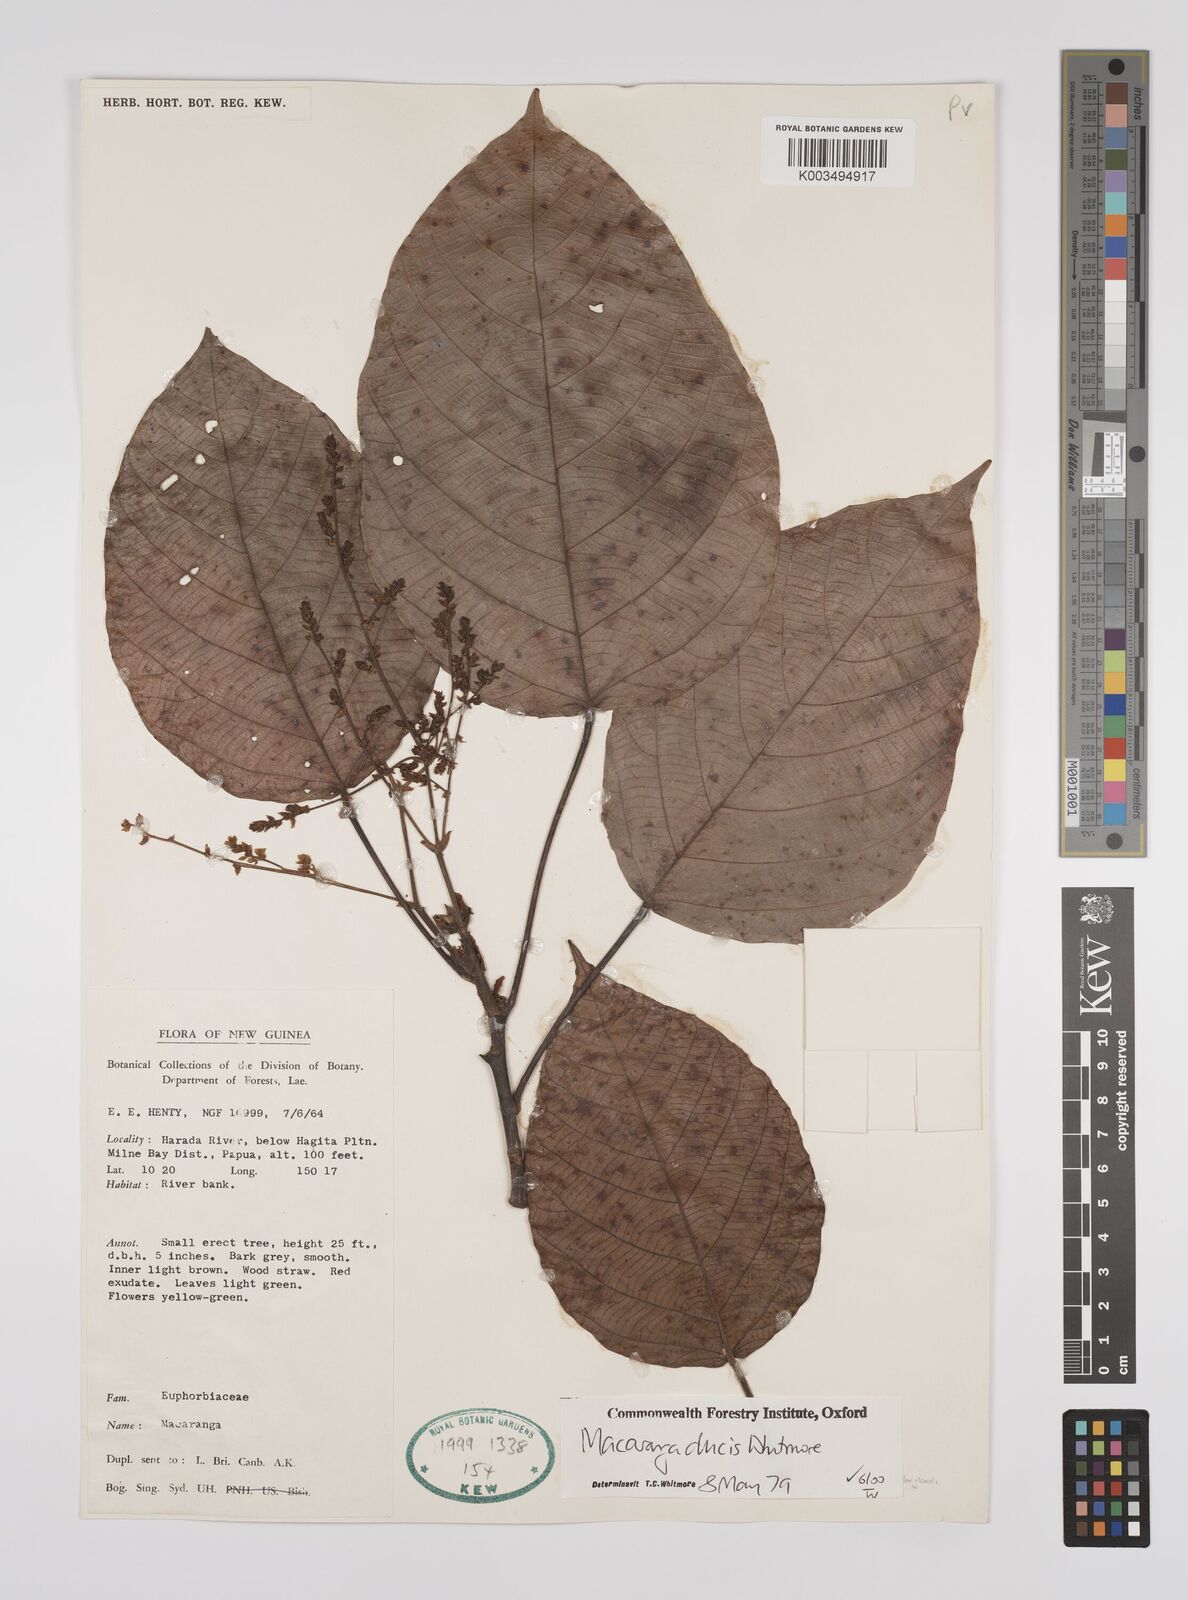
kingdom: Plantae
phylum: Tracheophyta
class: Magnoliopsida
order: Malpighiales
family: Euphorbiaceae
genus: Macaranga
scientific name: Macaranga ducis
